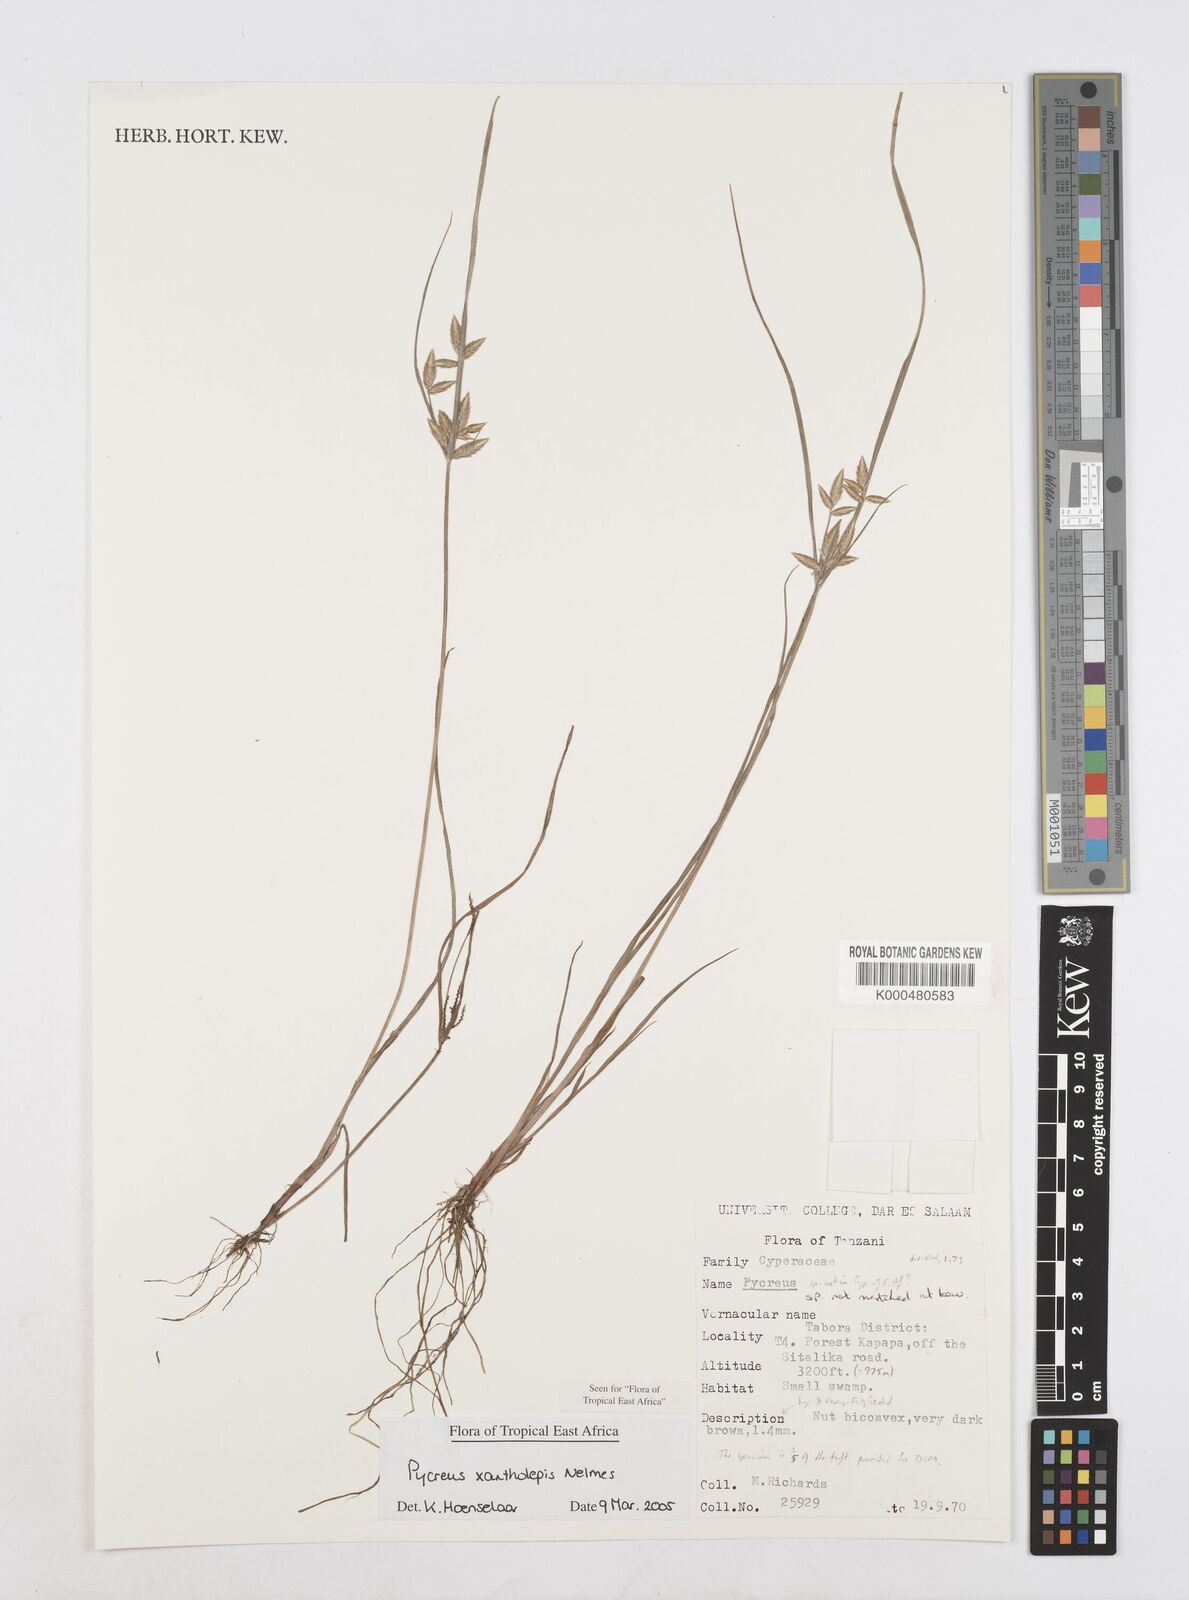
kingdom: Plantae
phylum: Tracheophyta
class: Liliopsida
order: Poales
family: Cyperaceae
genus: Cyperus
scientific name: Cyperus xantholepis
